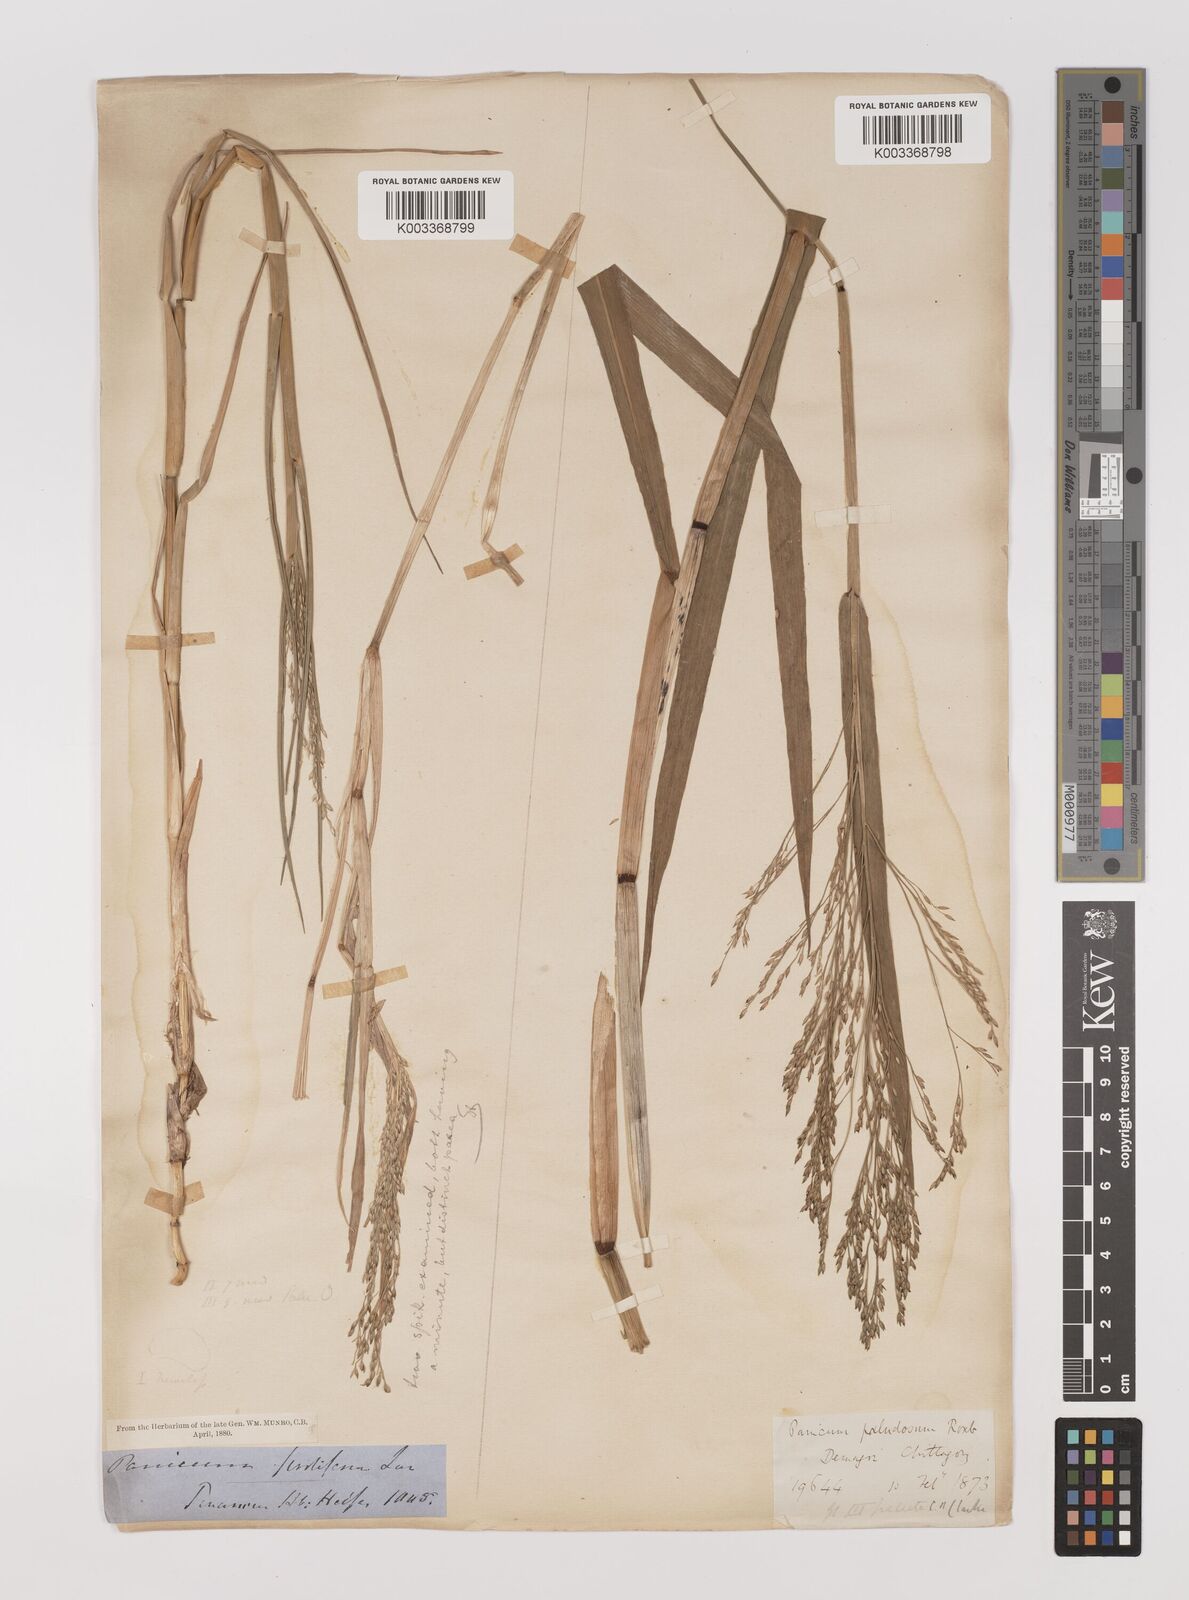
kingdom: Plantae
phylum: Tracheophyta
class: Liliopsida
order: Poales
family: Poaceae
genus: Louisiella
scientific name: Louisiella paludosa
